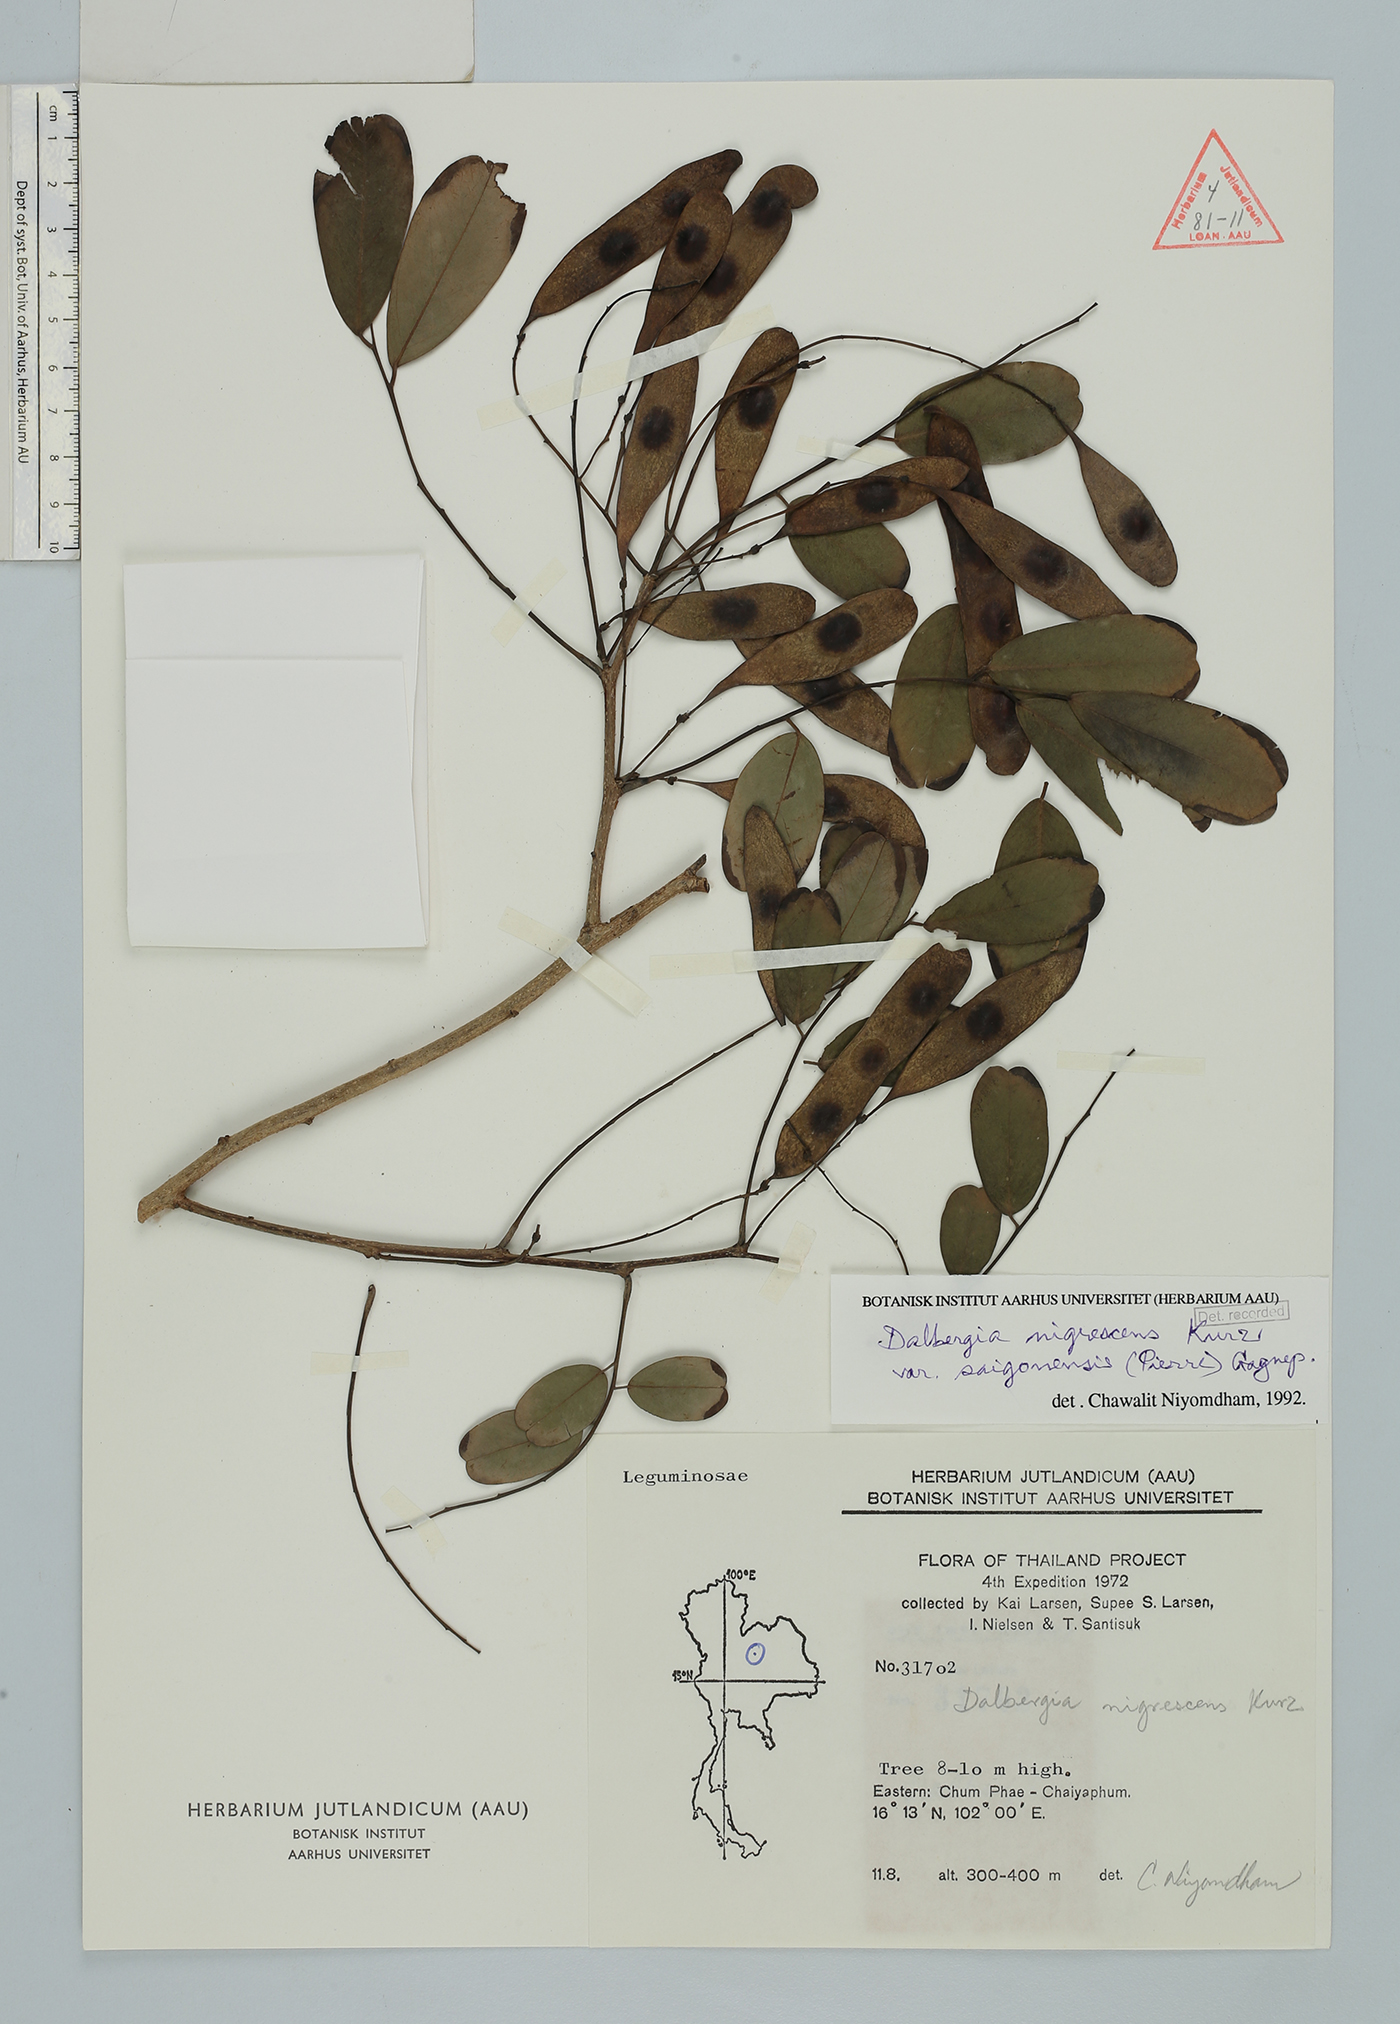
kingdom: Plantae
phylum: Tracheophyta
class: Magnoliopsida
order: Fabales
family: Fabaceae
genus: Dalbergia
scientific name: Dalbergia nigrescens
